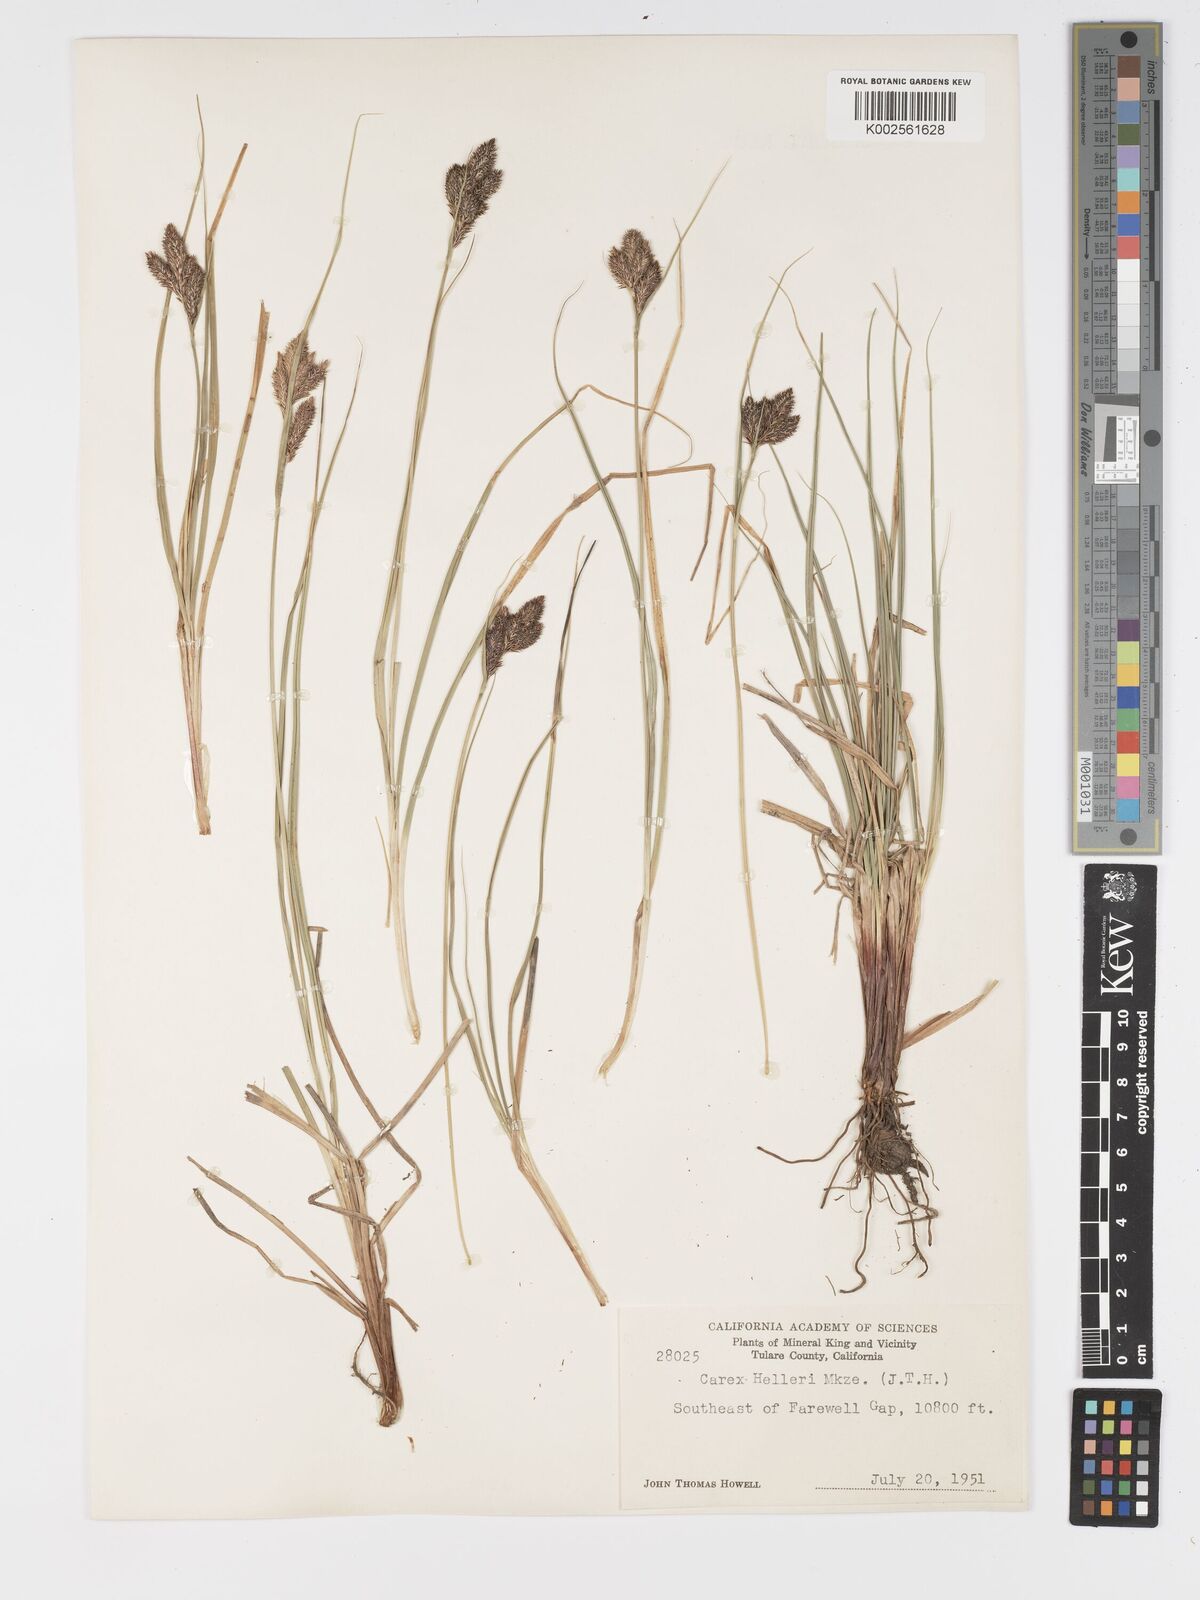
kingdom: Plantae
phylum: Tracheophyta
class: Liliopsida
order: Poales
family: Cyperaceae
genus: Carex
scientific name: Carex helleri
